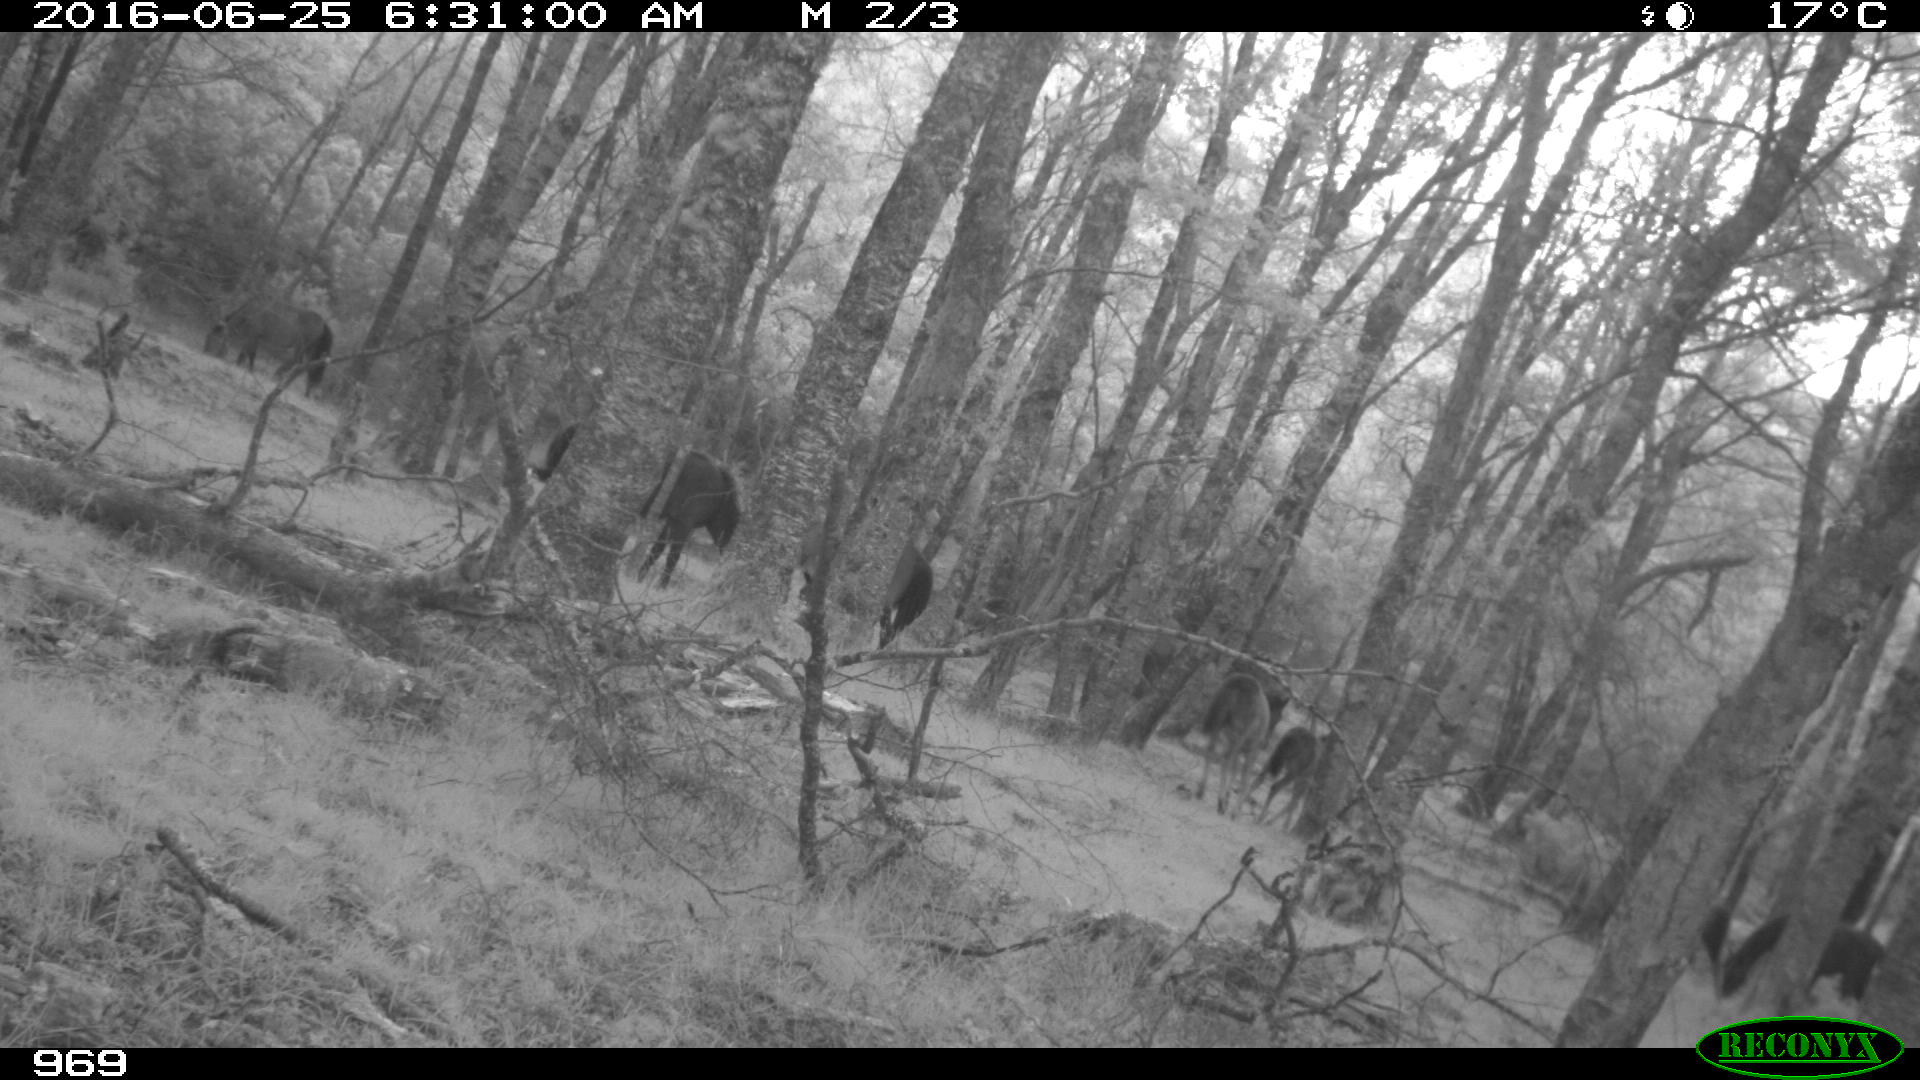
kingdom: Animalia
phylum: Chordata
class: Mammalia
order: Perissodactyla
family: Equidae
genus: Equus
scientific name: Equus caballus
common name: Horse
